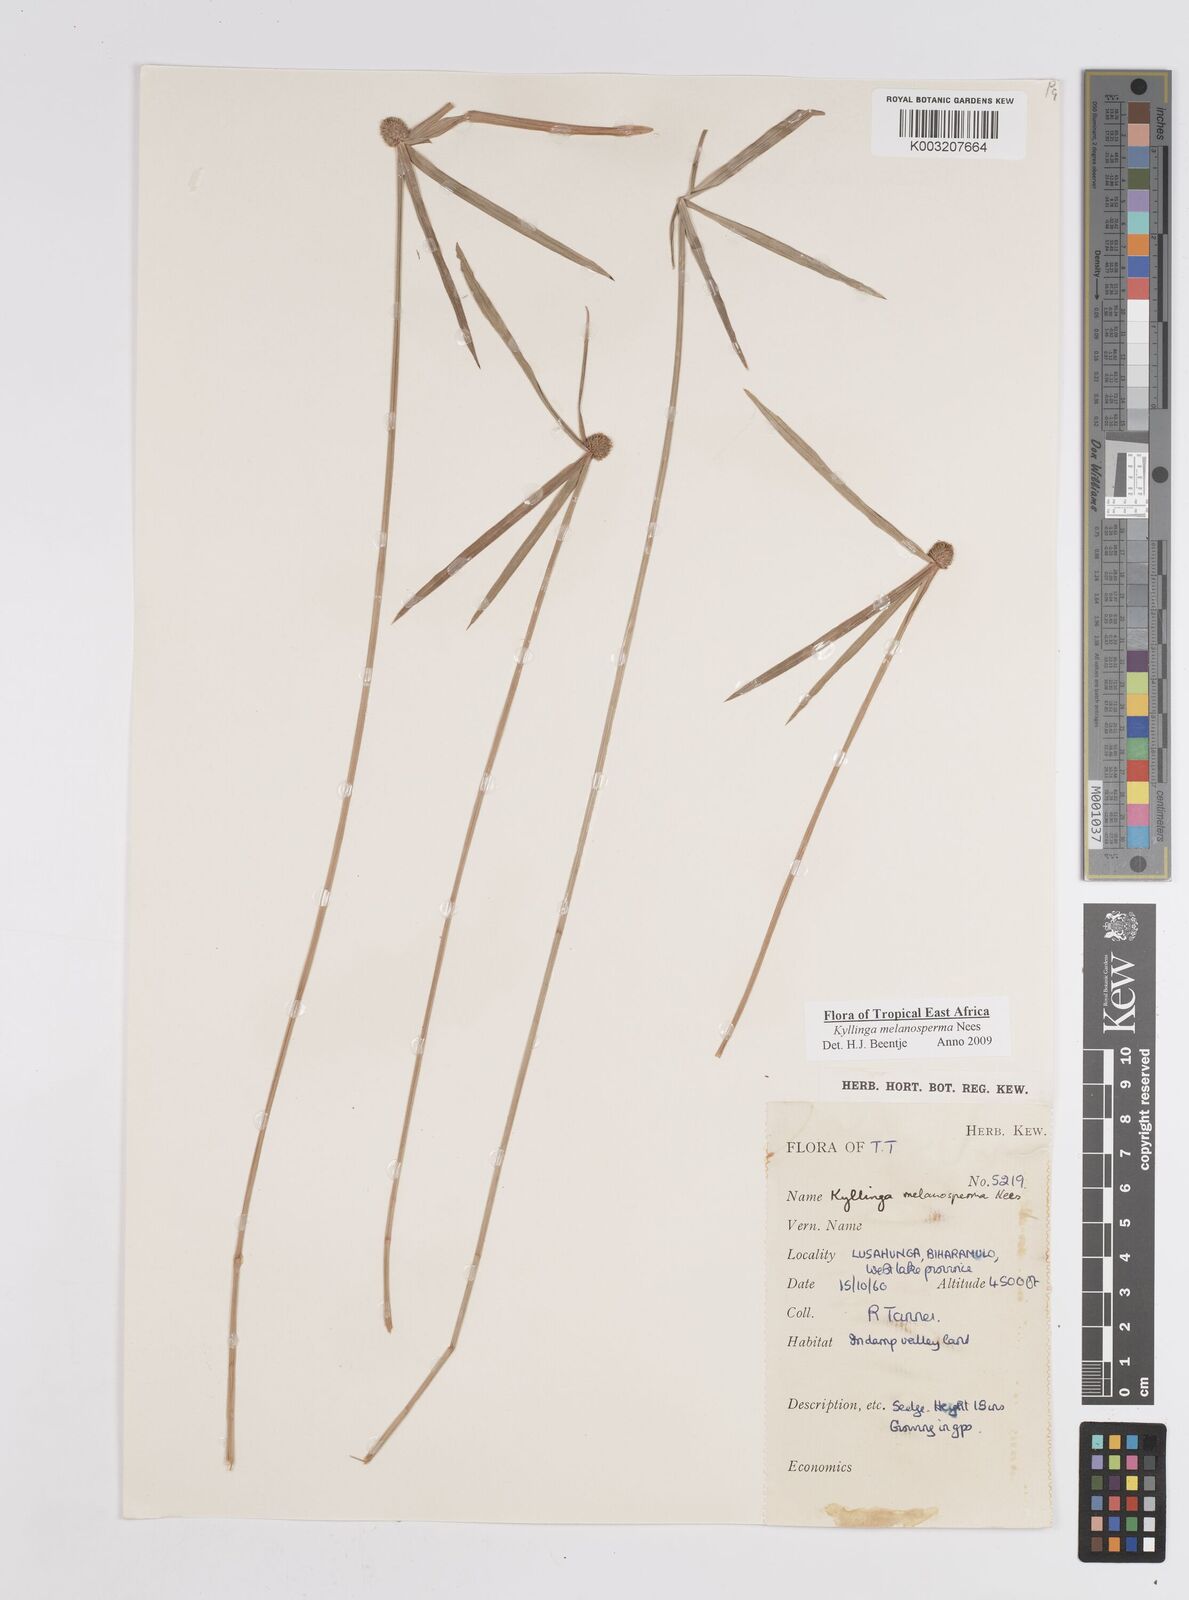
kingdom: Plantae
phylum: Tracheophyta
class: Liliopsida
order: Poales
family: Cyperaceae
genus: Cyperus
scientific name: Cyperus melanospermus
